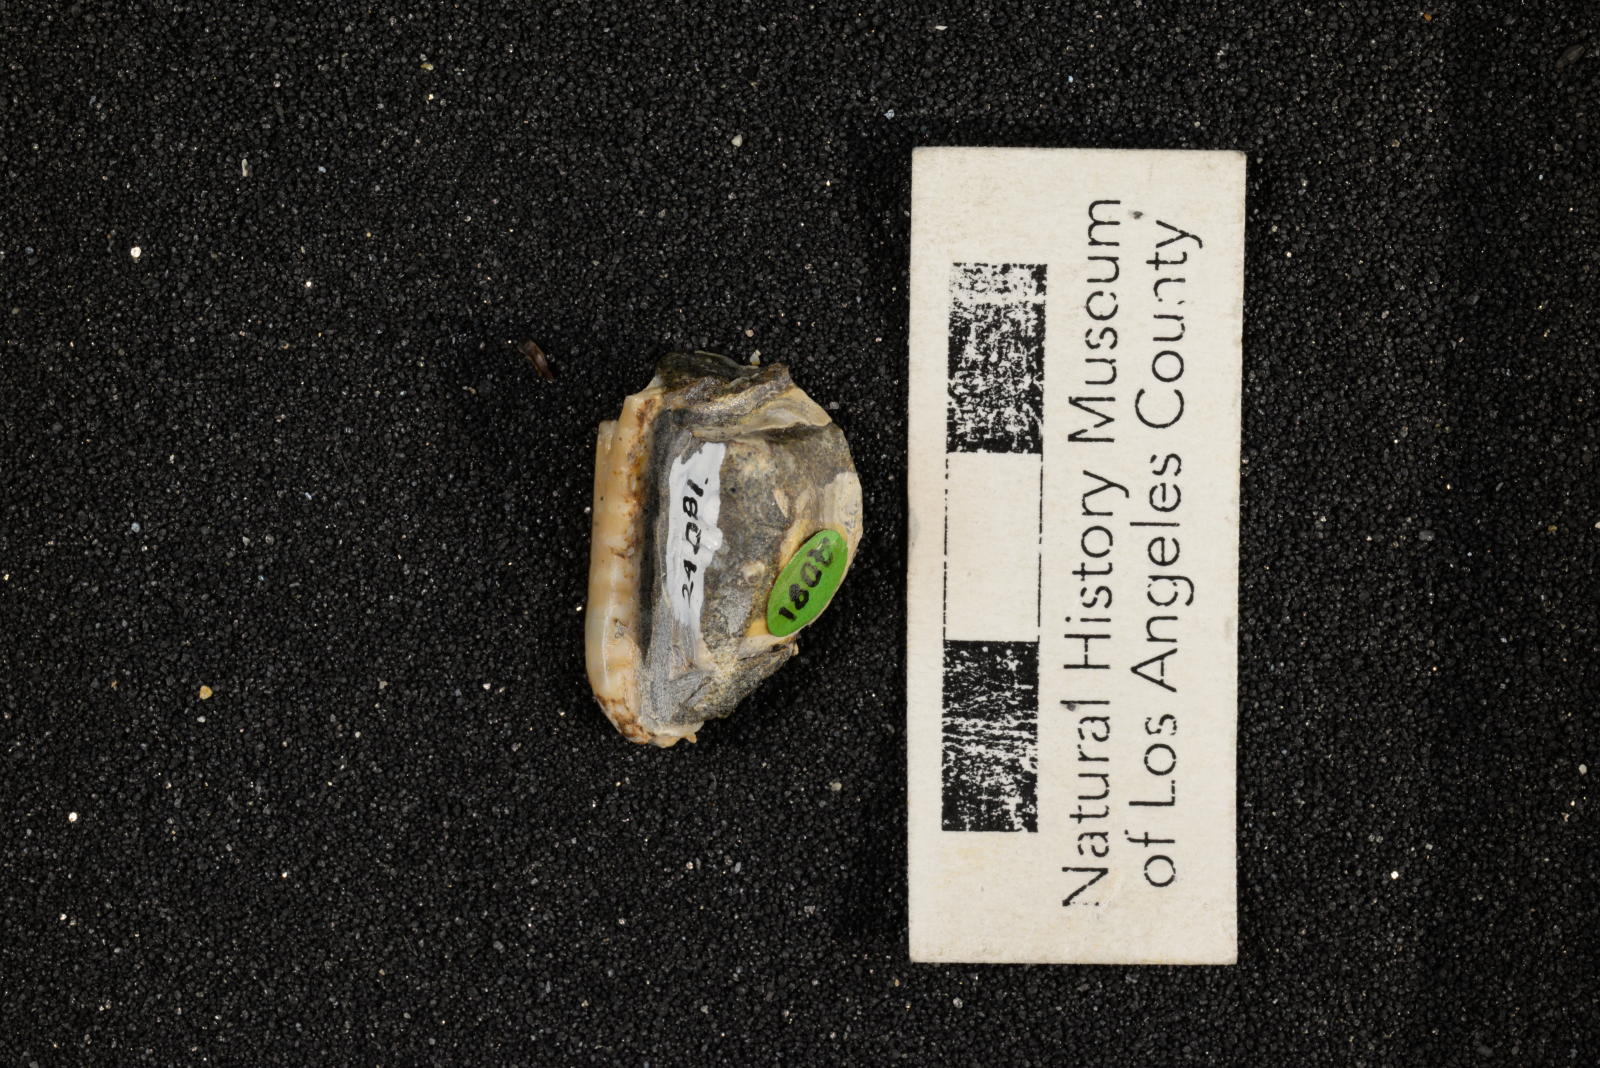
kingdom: Animalia
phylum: Mollusca
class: Gastropoda
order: Littorinimorpha
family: Cypraeidae
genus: Palaeocypraea
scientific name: Palaeocypraea wilfredi
